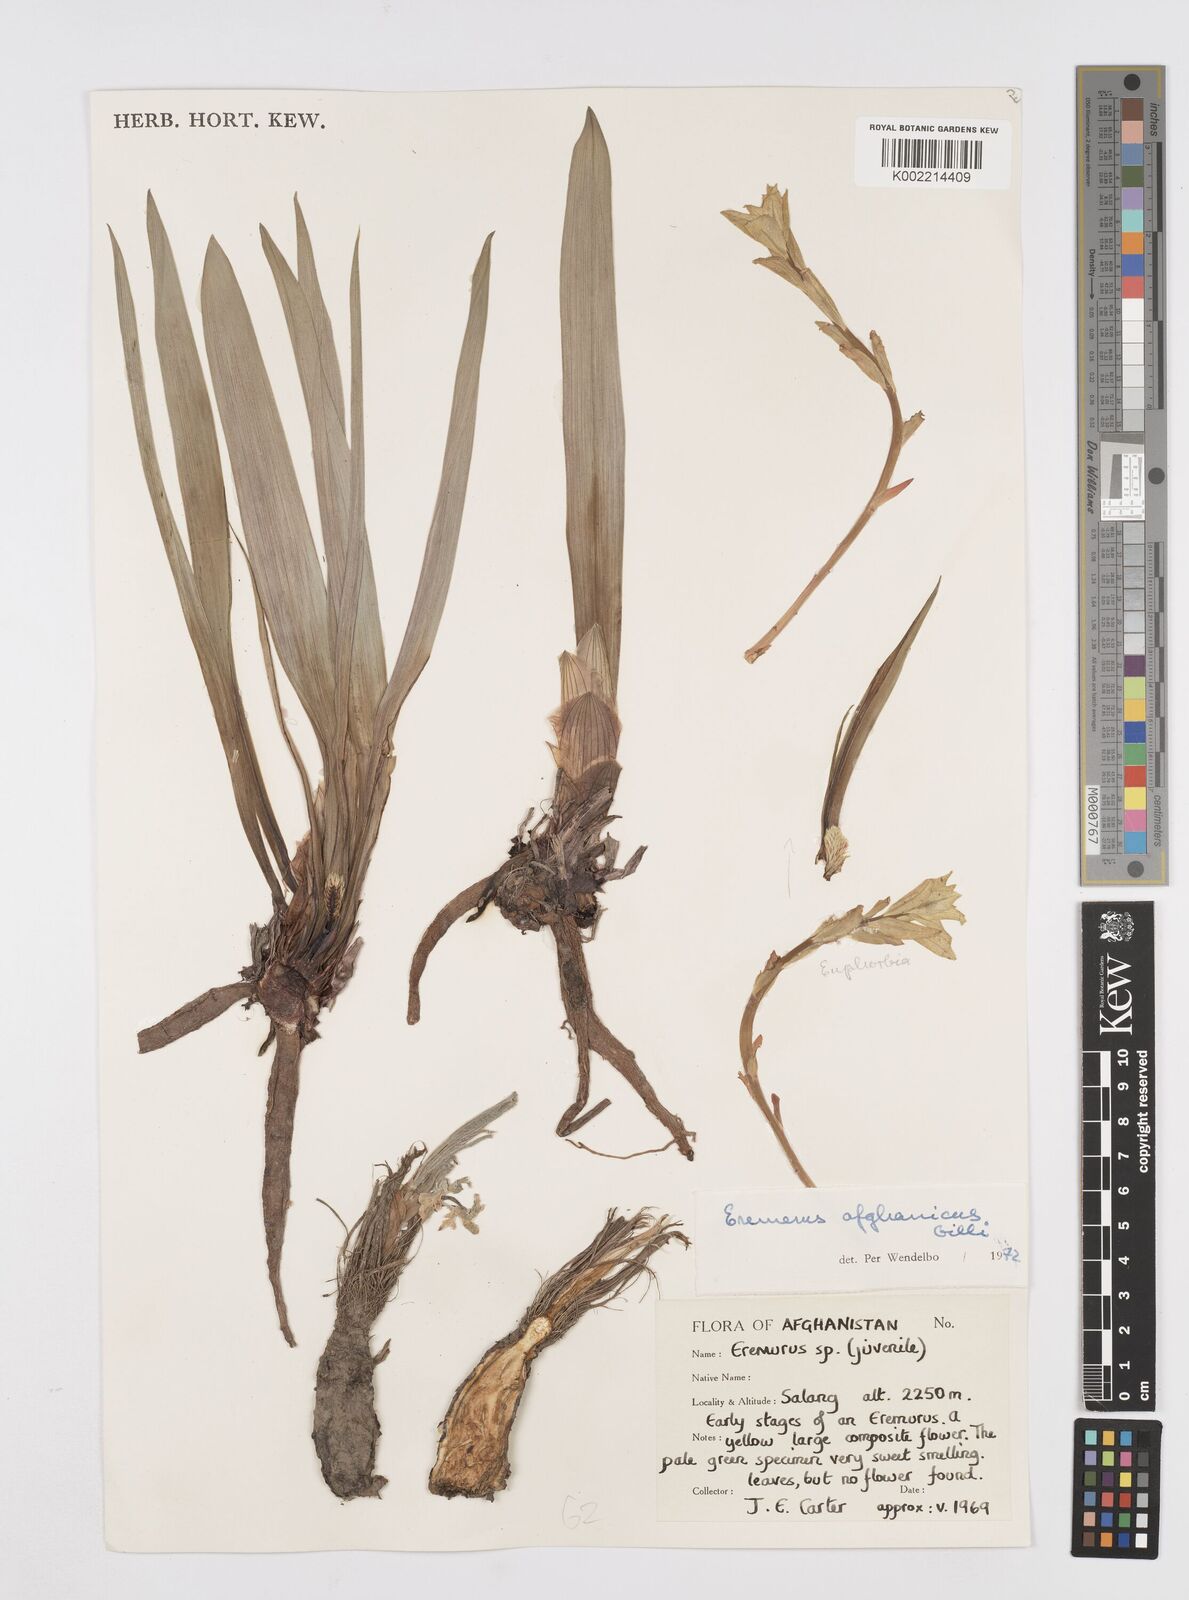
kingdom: Plantae
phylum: Tracheophyta
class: Liliopsida
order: Asparagales
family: Asphodelaceae
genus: Eremurus
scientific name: Eremurus afghanicus
